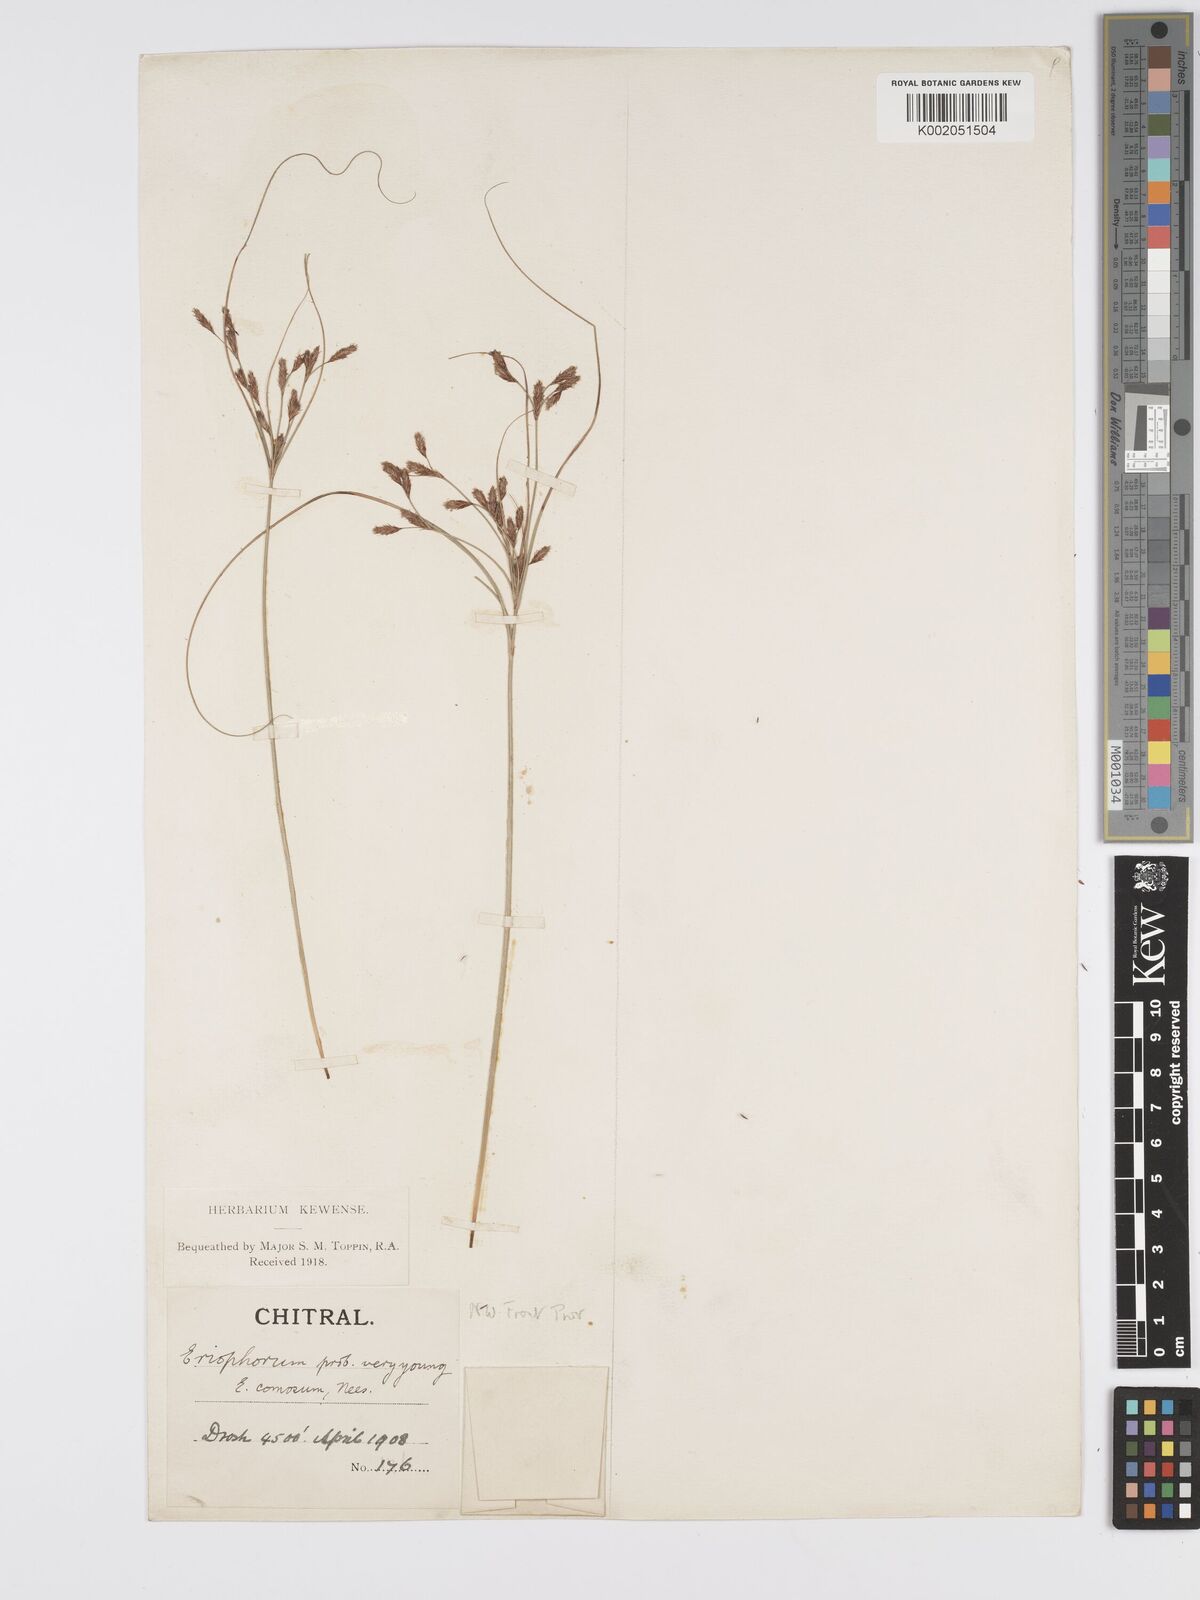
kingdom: Plantae
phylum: Tracheophyta
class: Liliopsida
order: Poales
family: Cyperaceae
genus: Erioscirpus
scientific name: Erioscirpus comosus
